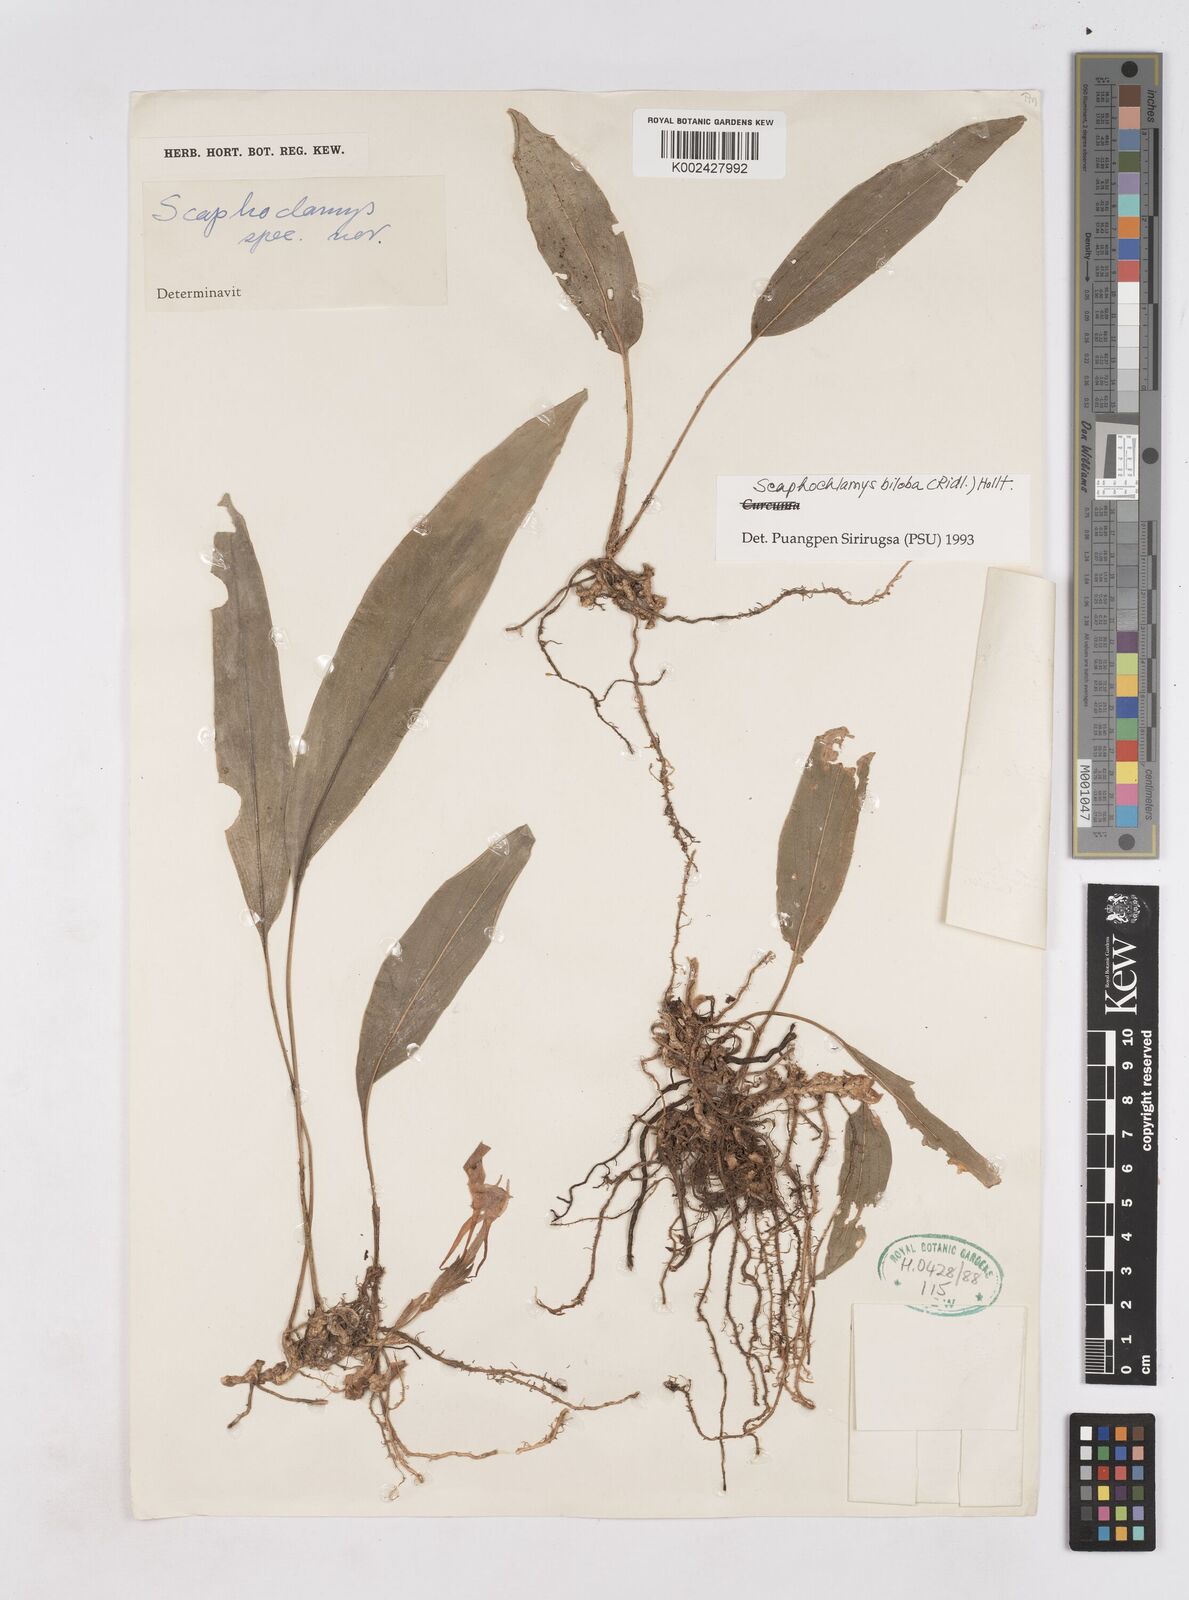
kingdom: Plantae
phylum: Tracheophyta
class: Liliopsida
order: Zingiberales
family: Zingiberaceae
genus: Scaphochlamys
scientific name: Scaphochlamys biloba
